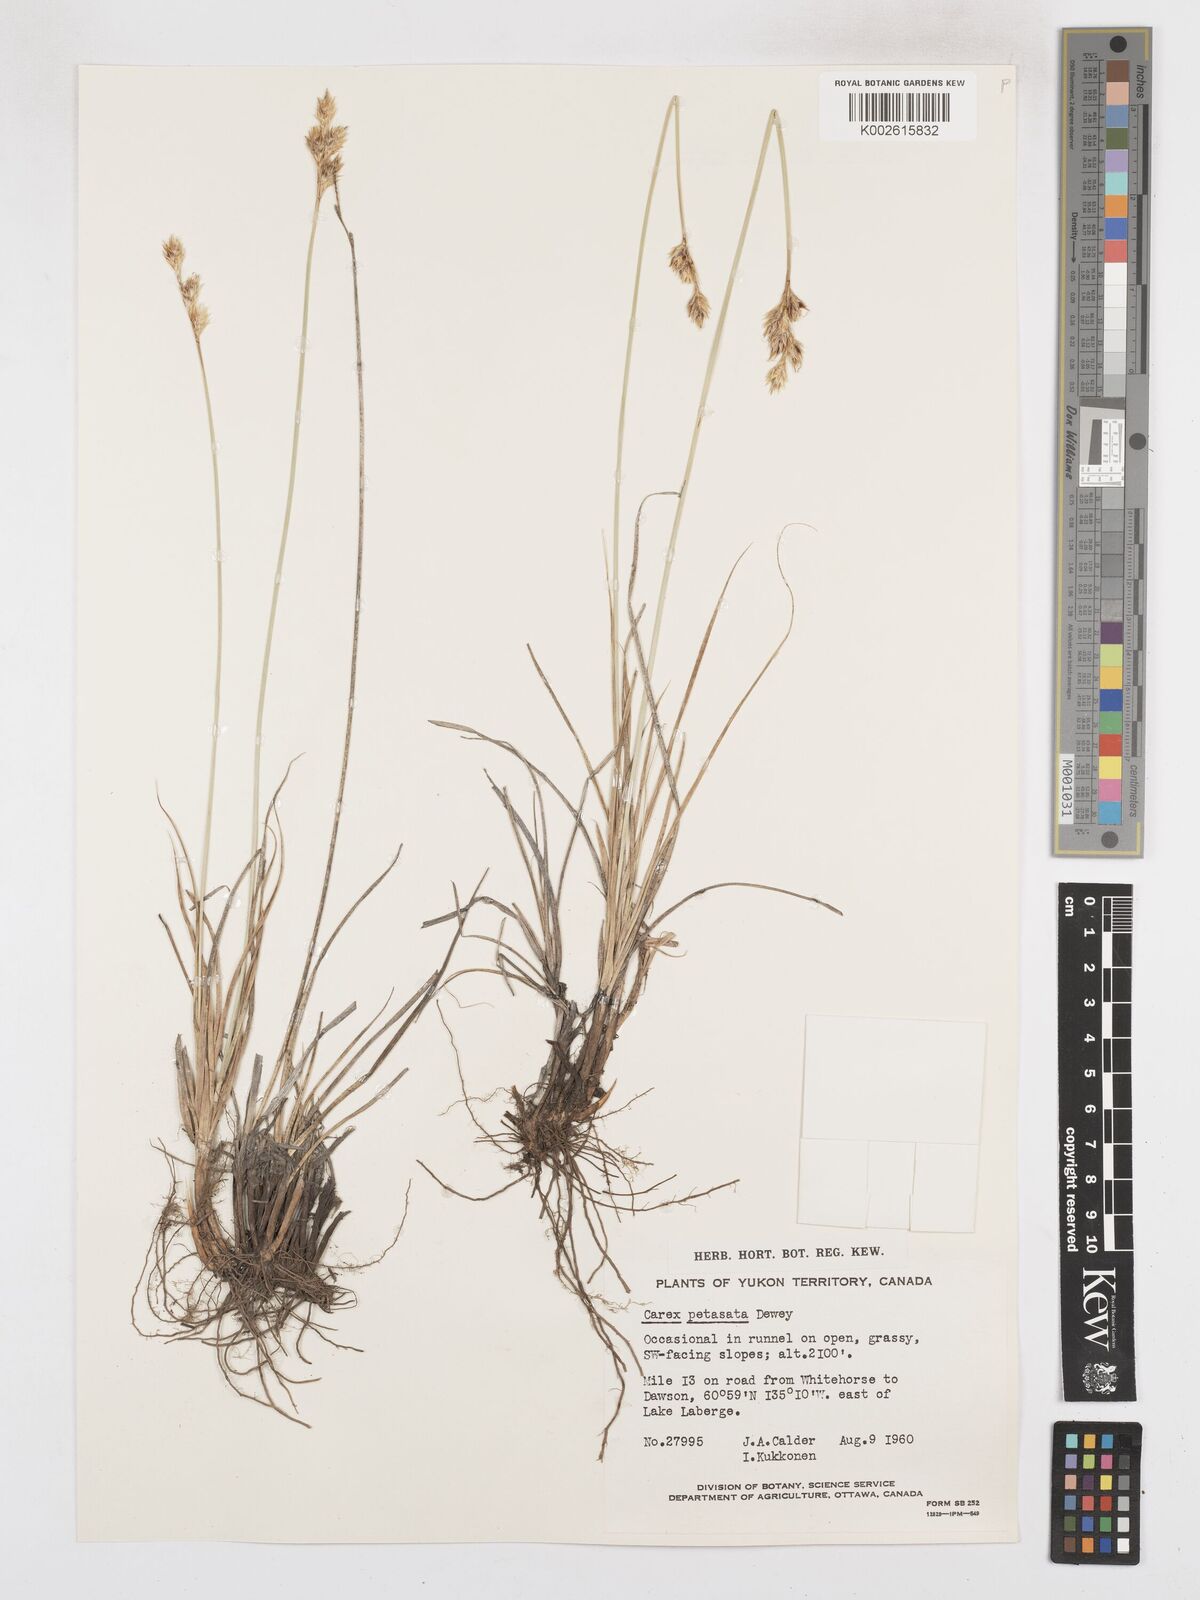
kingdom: Plantae
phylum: Tracheophyta
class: Liliopsida
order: Poales
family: Cyperaceae
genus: Carex
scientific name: Carex petasata
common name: Liddon's sedge
